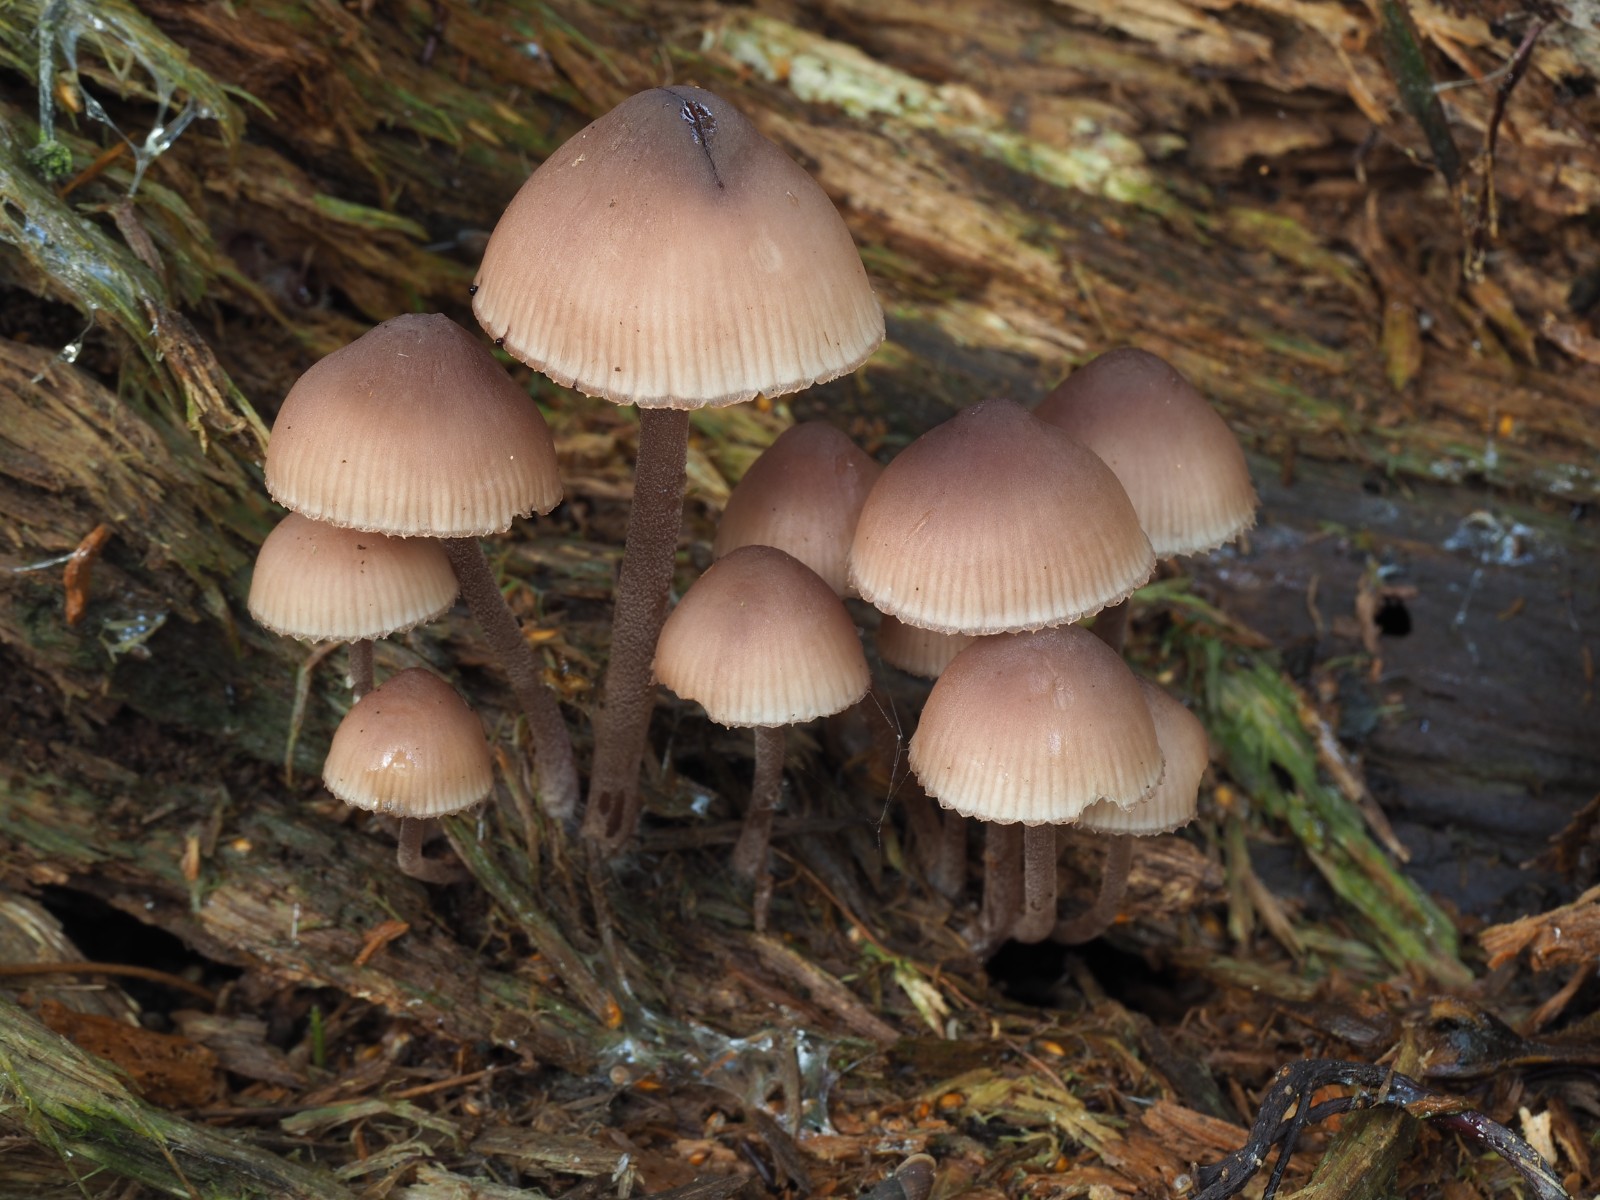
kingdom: Fungi
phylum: Basidiomycota
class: Agaricomycetes
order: Agaricales
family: Mycenaceae
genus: Mycena
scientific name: Mycena haematopus
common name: blødende huesvamp
